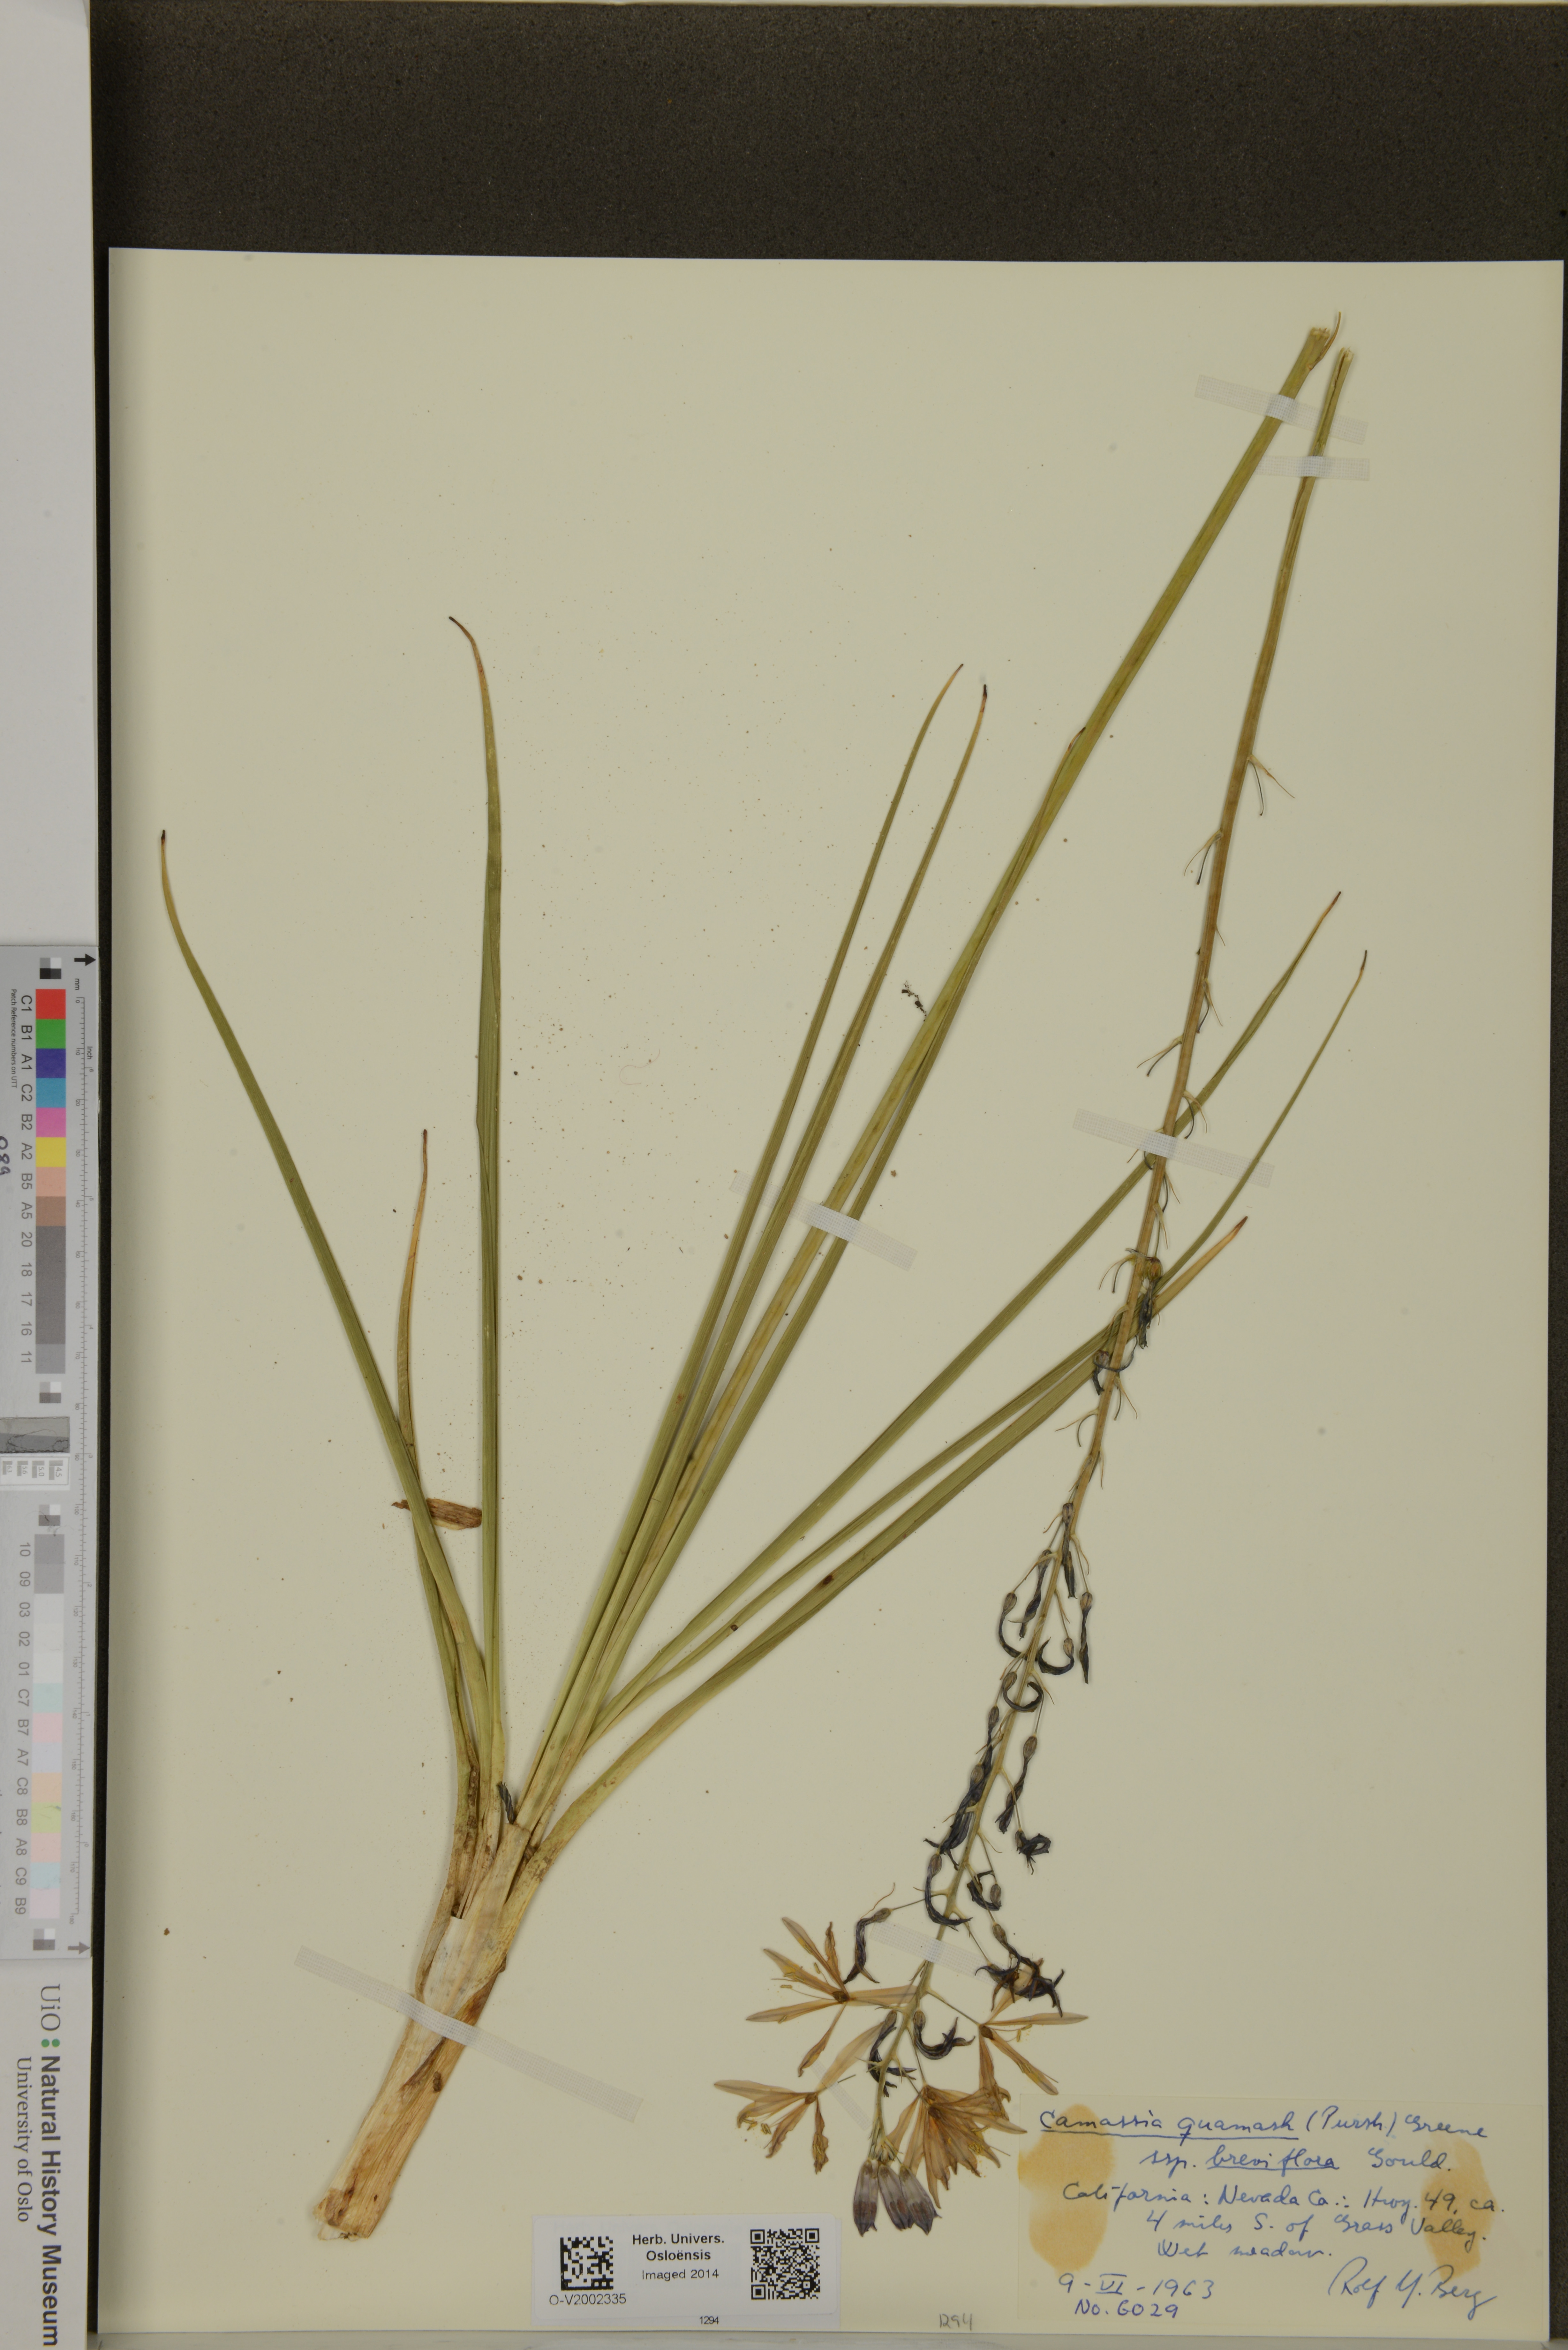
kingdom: Plantae
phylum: Tracheophyta
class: Liliopsida
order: Asparagales
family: Asparagaceae
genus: Camassia
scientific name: Camassia quamash
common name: Common camas
